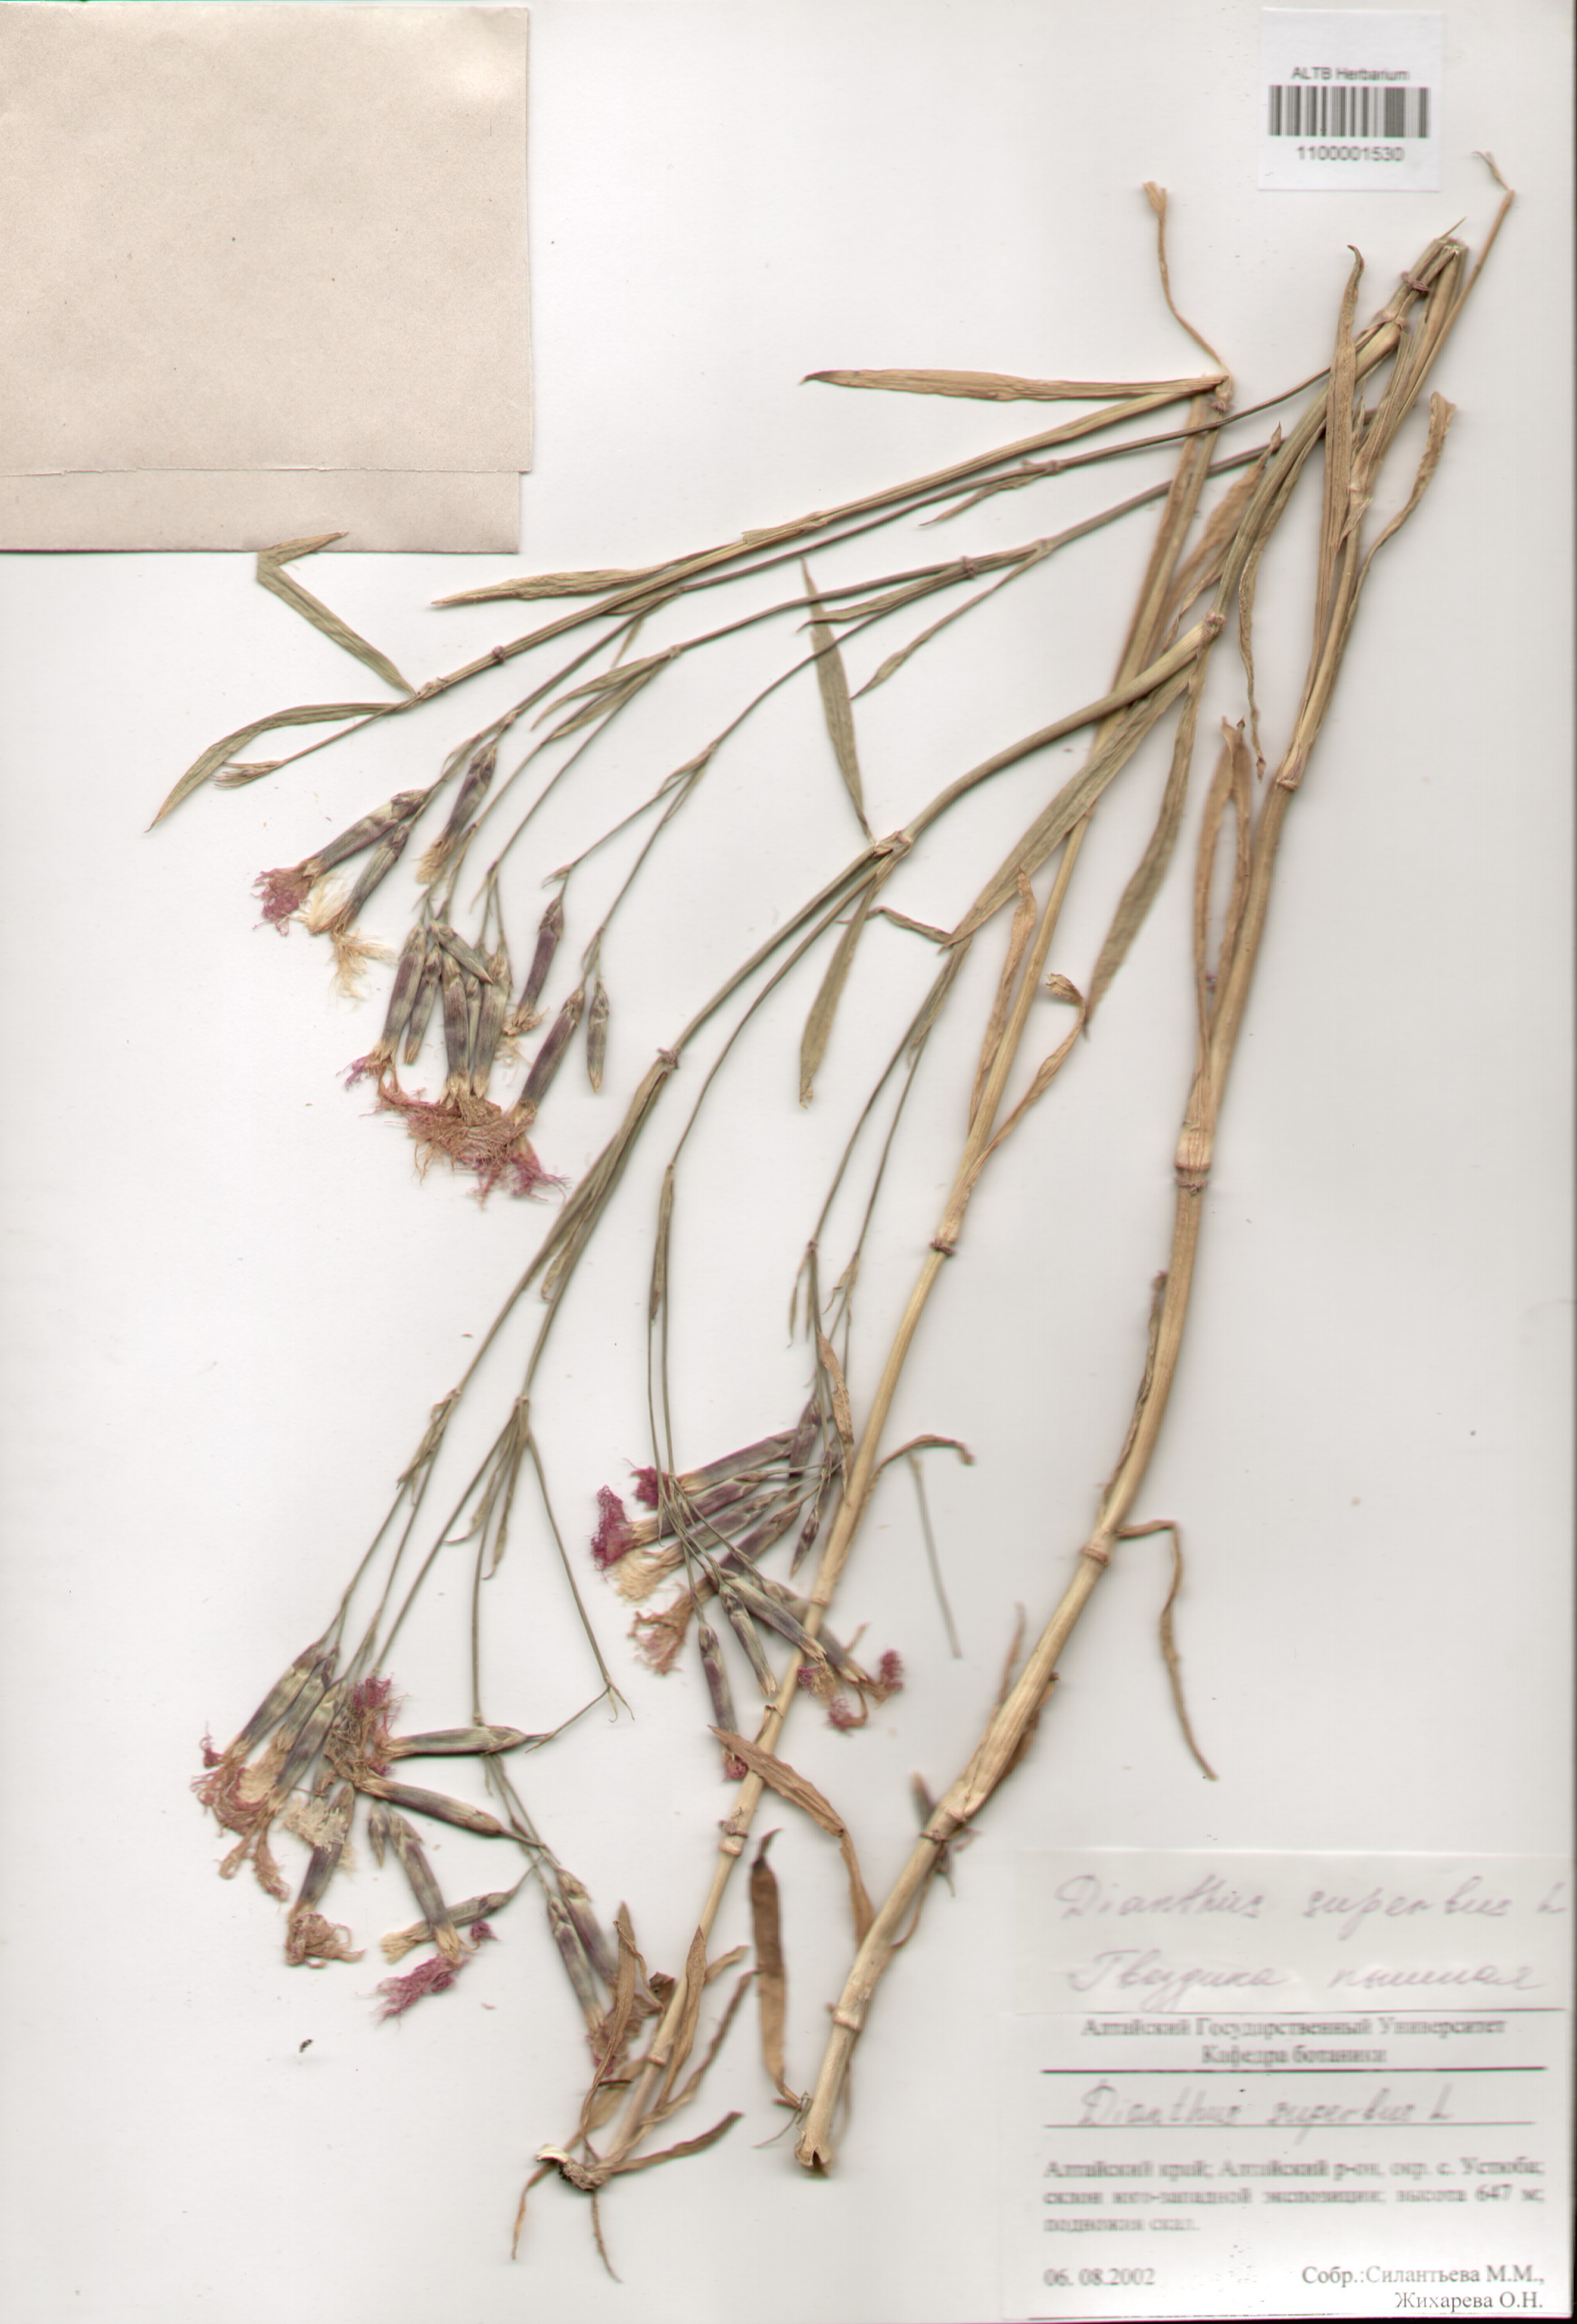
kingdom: Plantae
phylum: Tracheophyta
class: Magnoliopsida
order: Caryophyllales
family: Caryophyllaceae
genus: Dianthus
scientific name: Dianthus superbus
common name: Fringed pink
